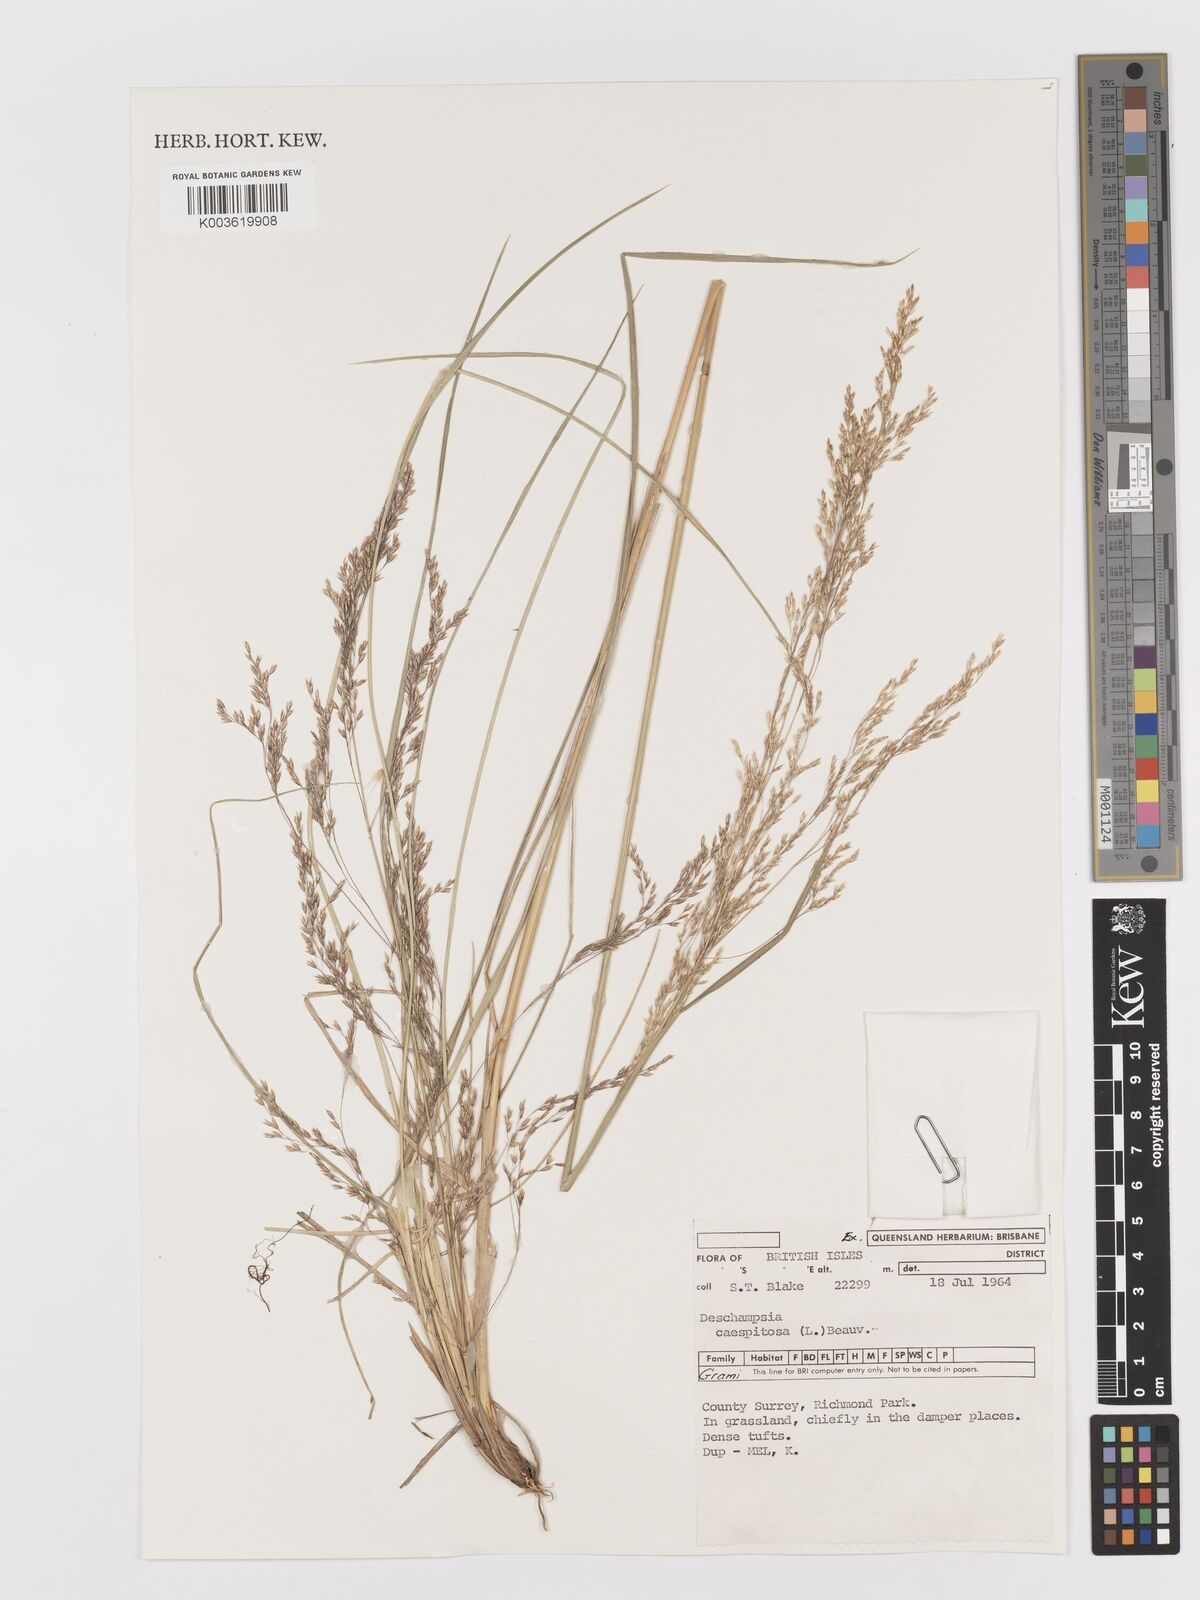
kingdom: Plantae
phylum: Tracheophyta
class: Liliopsida
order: Poales
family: Poaceae
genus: Deschampsia
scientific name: Deschampsia
